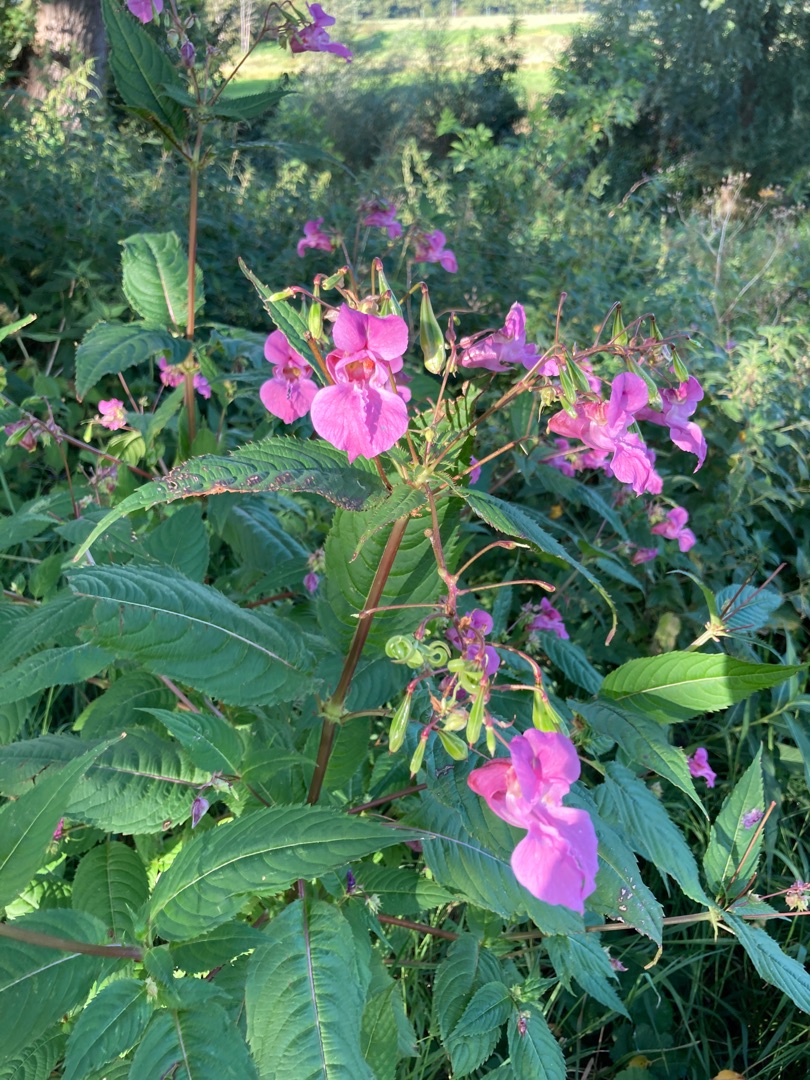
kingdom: Plantae
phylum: Tracheophyta
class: Magnoliopsida
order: Ericales
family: Balsaminaceae
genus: Impatiens
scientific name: Impatiens glandulifera
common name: Kæmpe-balsamin
